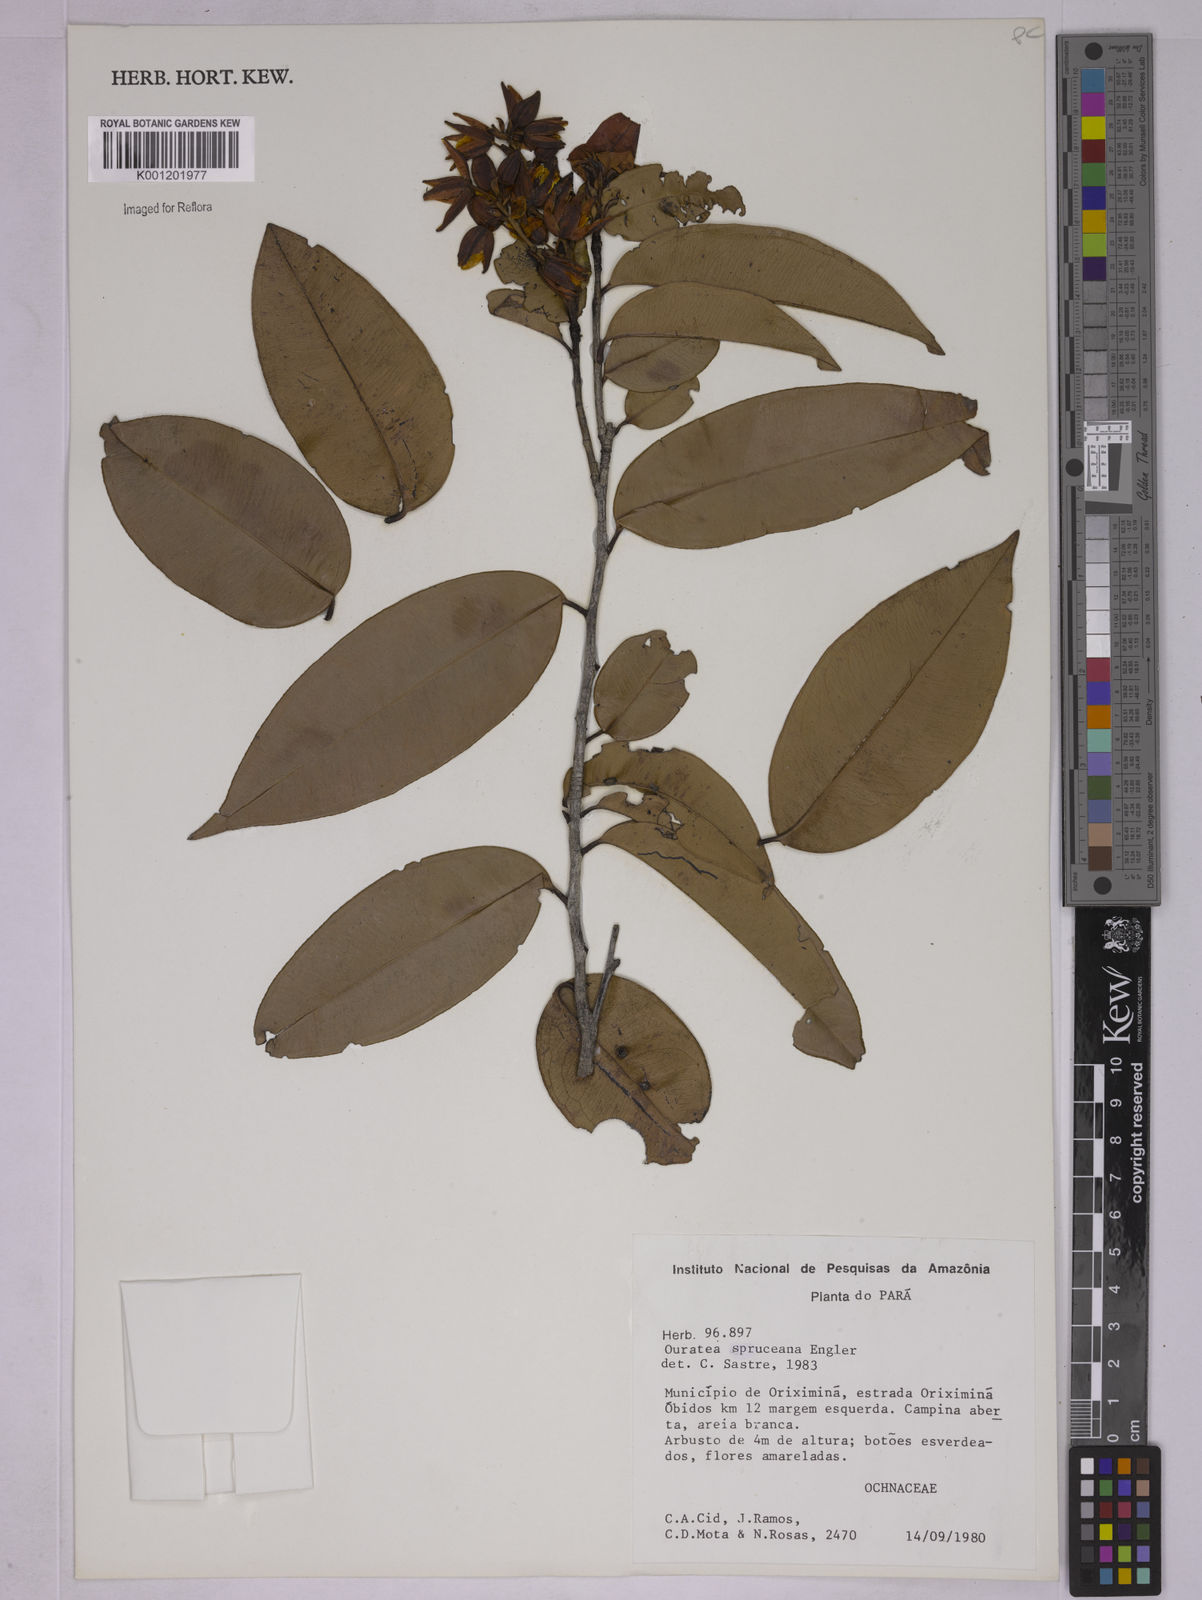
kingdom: Plantae
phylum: Tracheophyta
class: Magnoliopsida
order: Malpighiales
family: Ochnaceae
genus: Ouratea
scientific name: Ouratea spruceana
